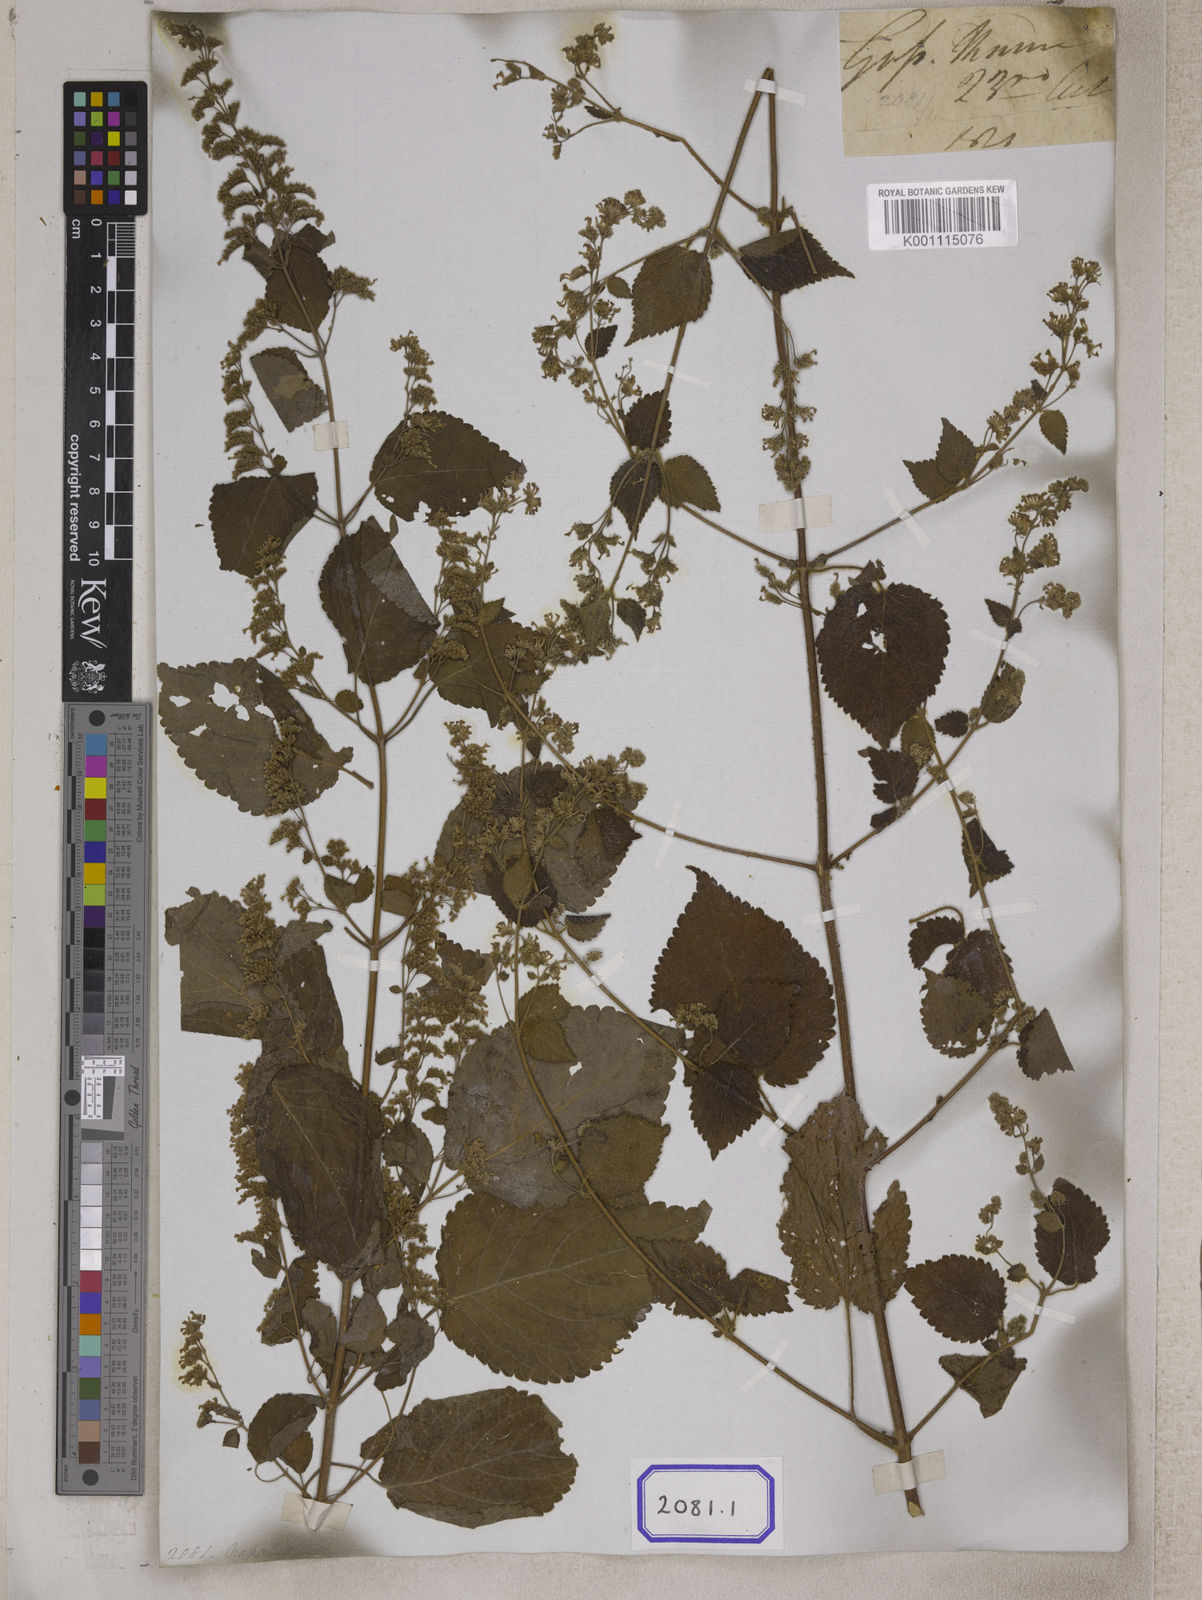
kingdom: Plantae
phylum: Tracheophyta
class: Magnoliopsida
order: Lamiales
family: Lamiaceae
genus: Craniotome
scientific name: Craniotome furcata
